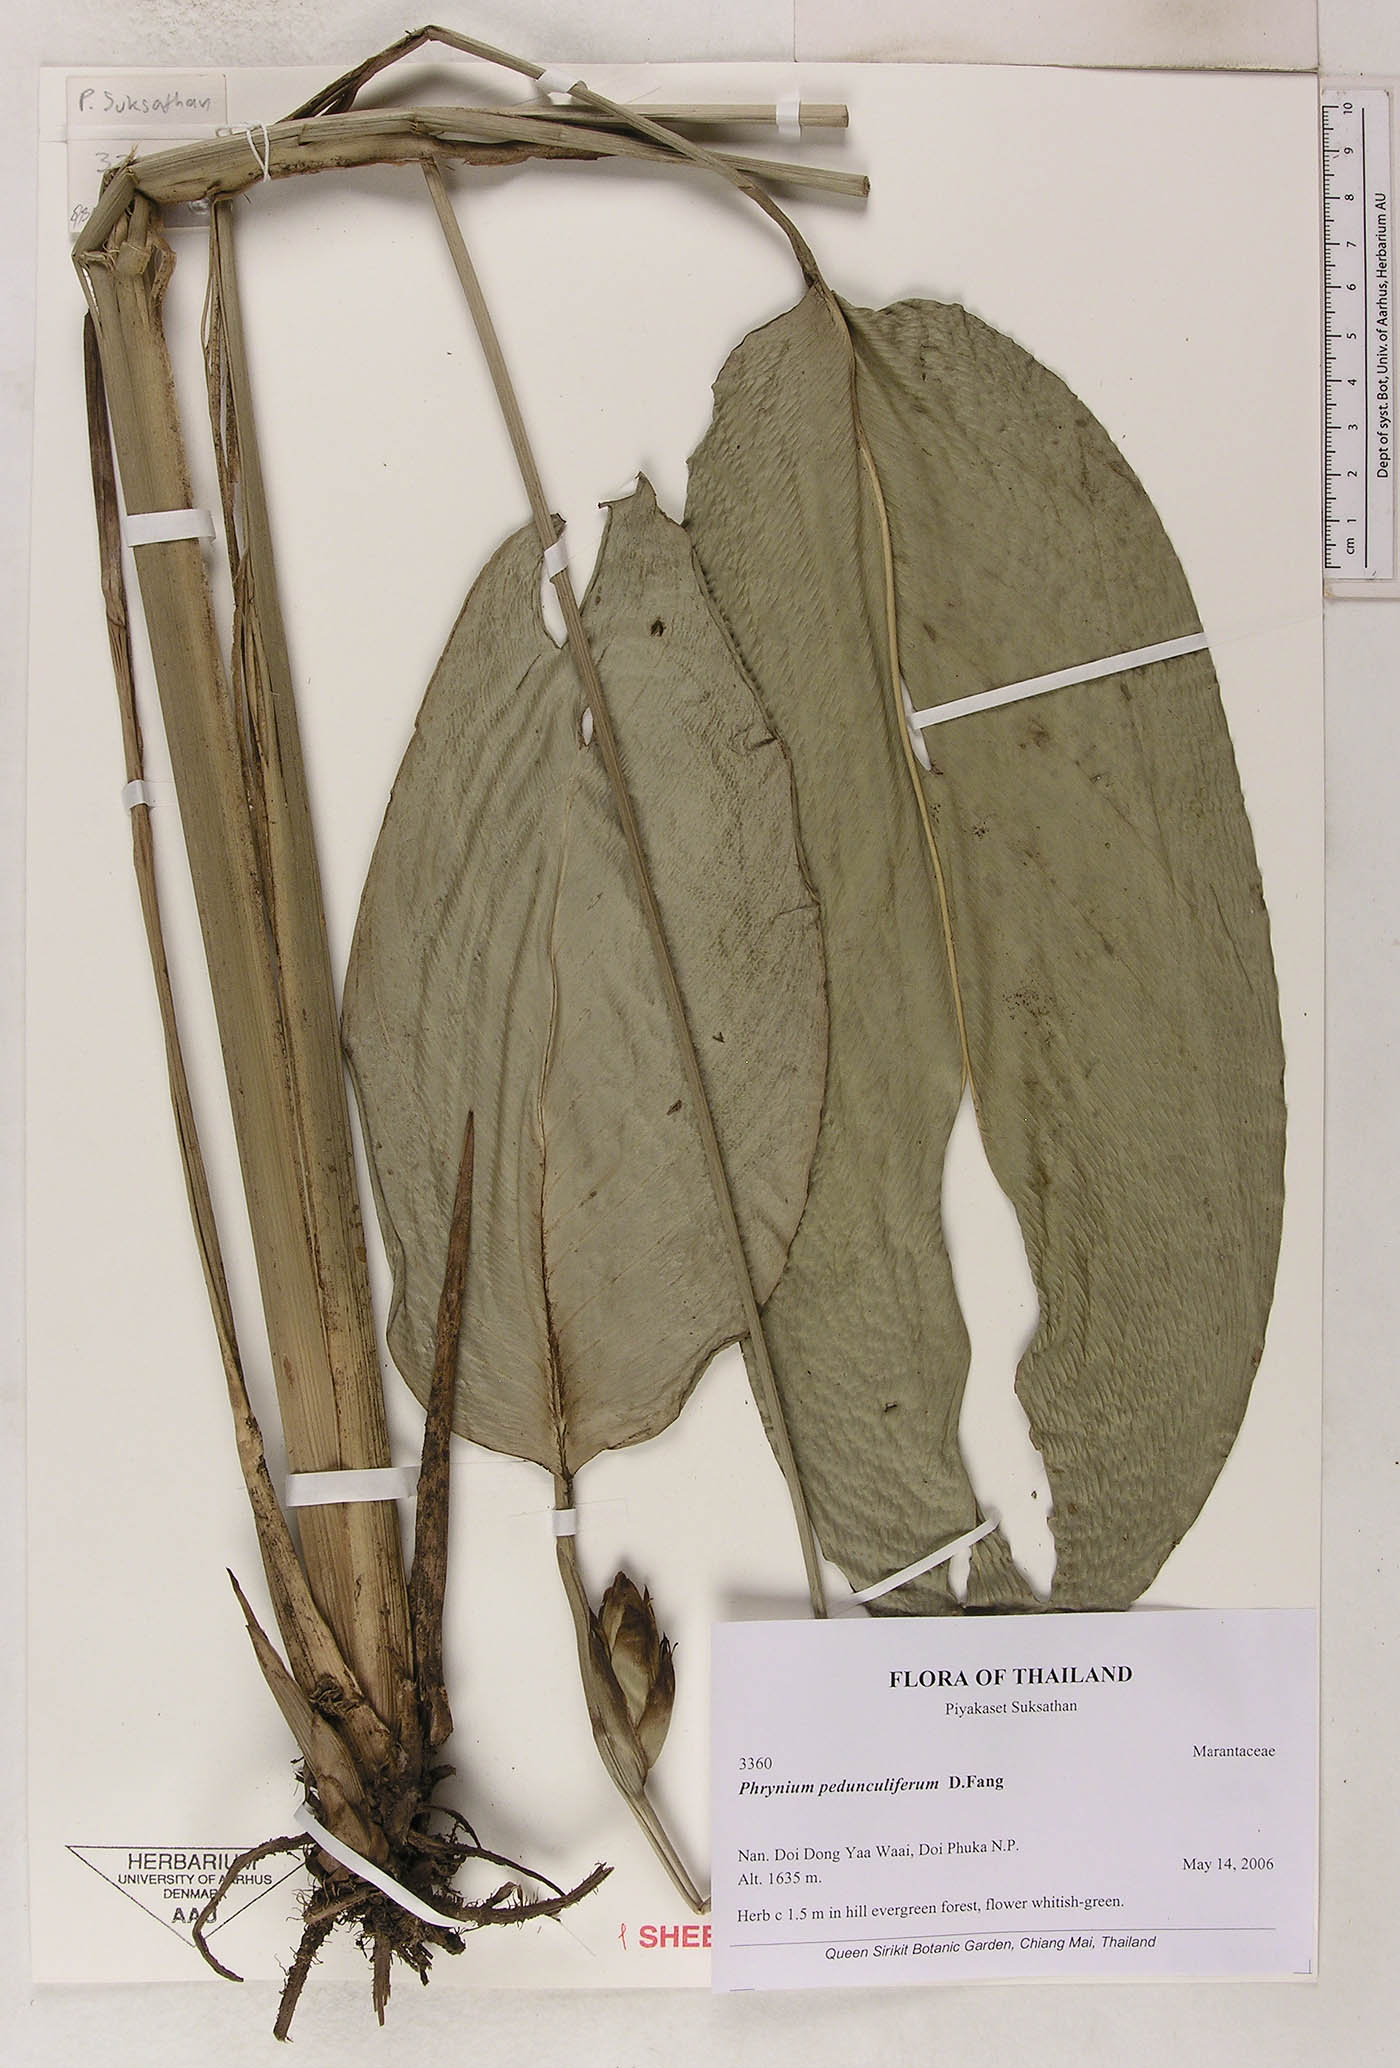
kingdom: Plantae
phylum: Tracheophyta
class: Liliopsida
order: Zingiberales
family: Marantaceae
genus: Phrynium
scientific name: Phrynium pedunculiferum
